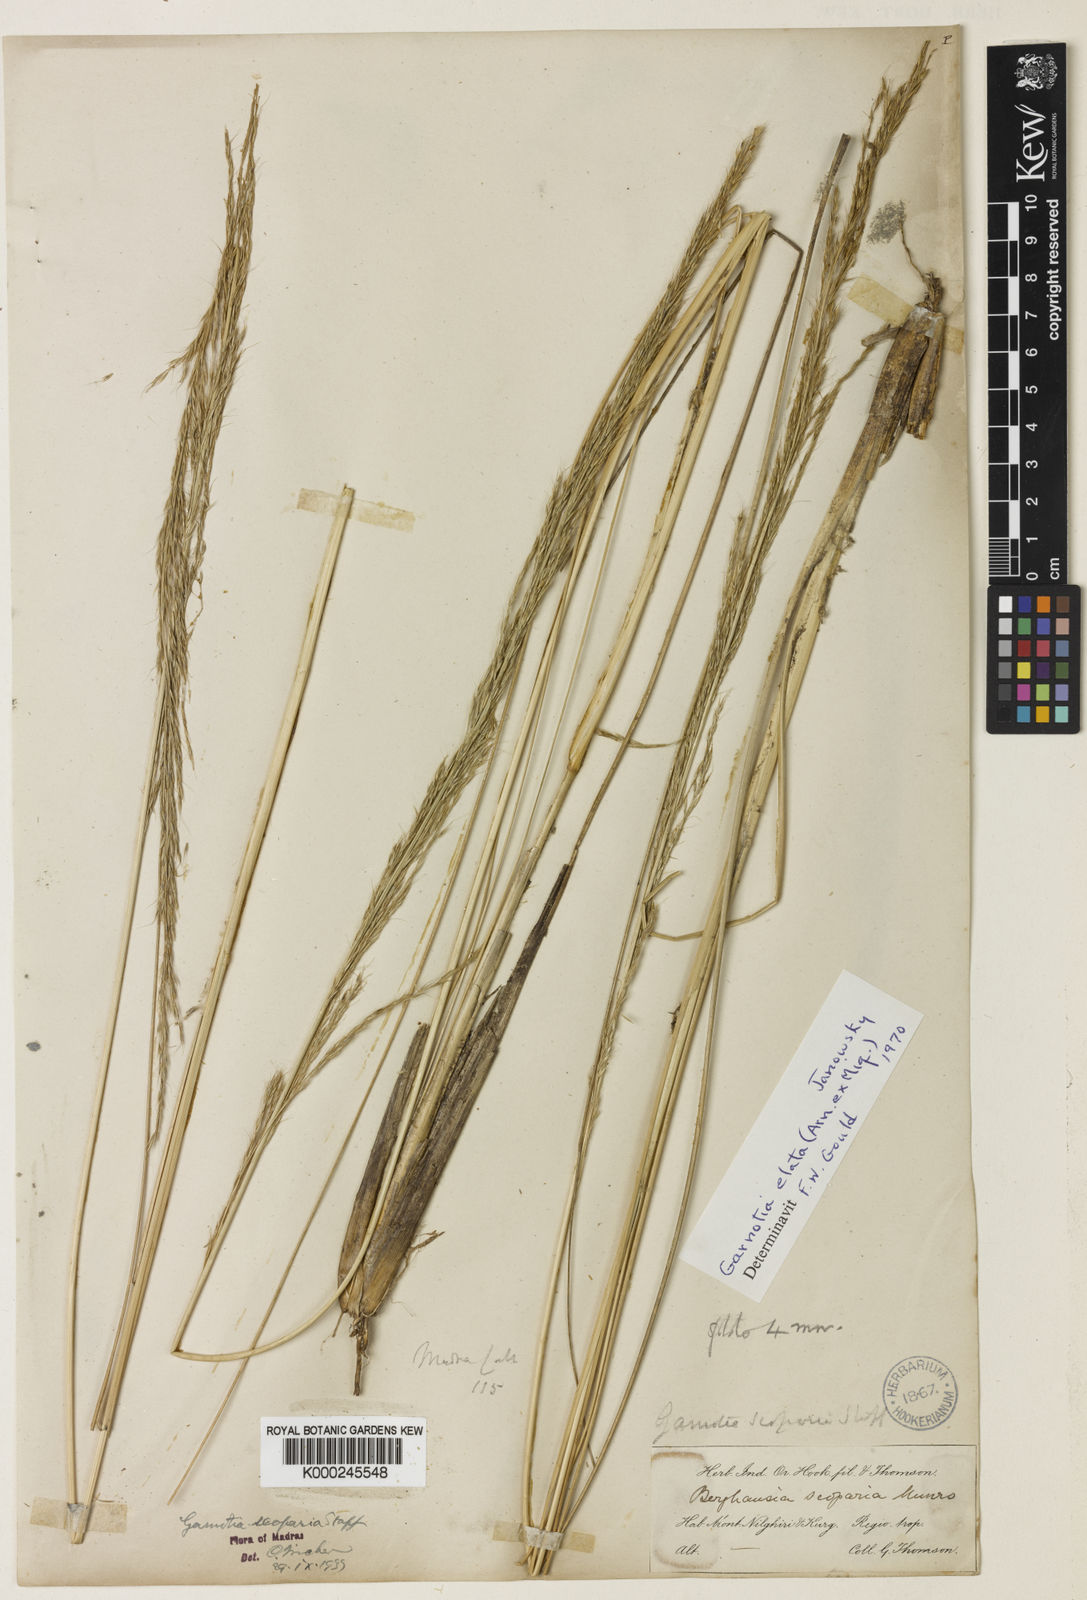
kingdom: Plantae
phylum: Tracheophyta
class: Liliopsida
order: Poales
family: Poaceae
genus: Garnotia
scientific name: Garnotia elata
